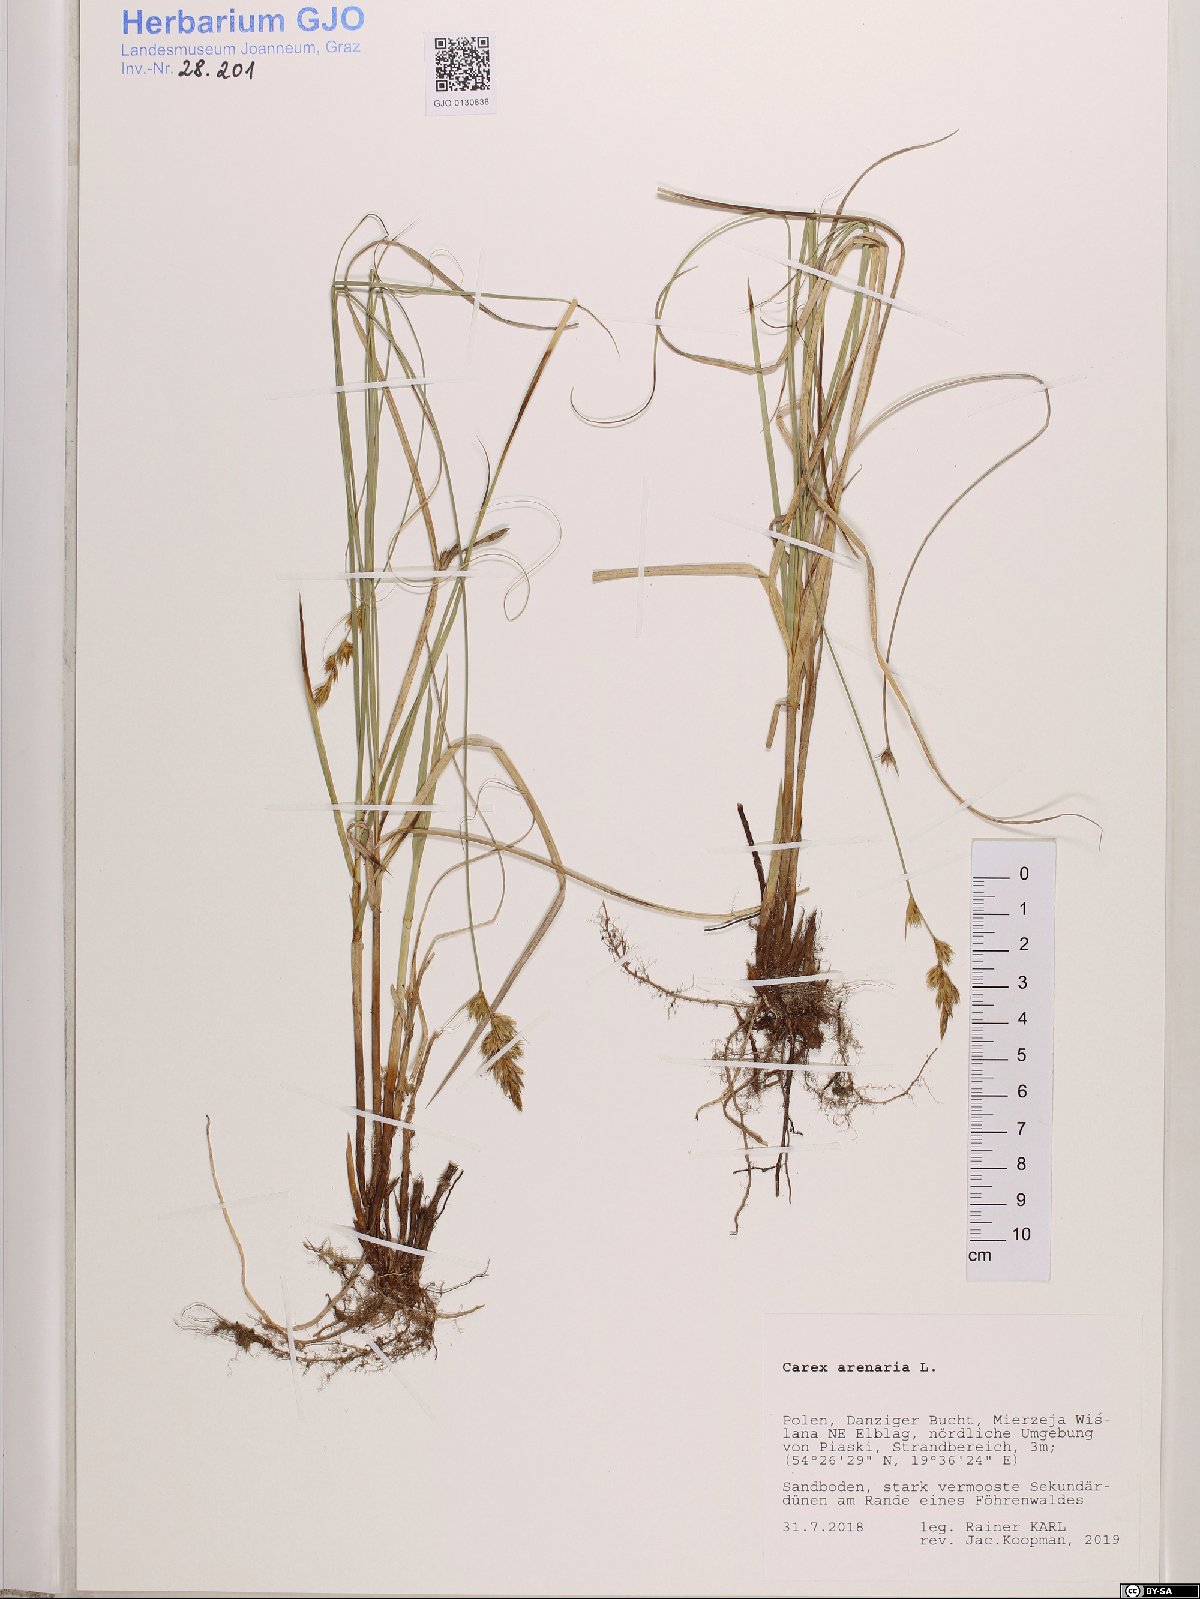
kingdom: Plantae
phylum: Tracheophyta
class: Liliopsida
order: Poales
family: Cyperaceae
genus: Carex
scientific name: Carex arenaria
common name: Sand sedge
